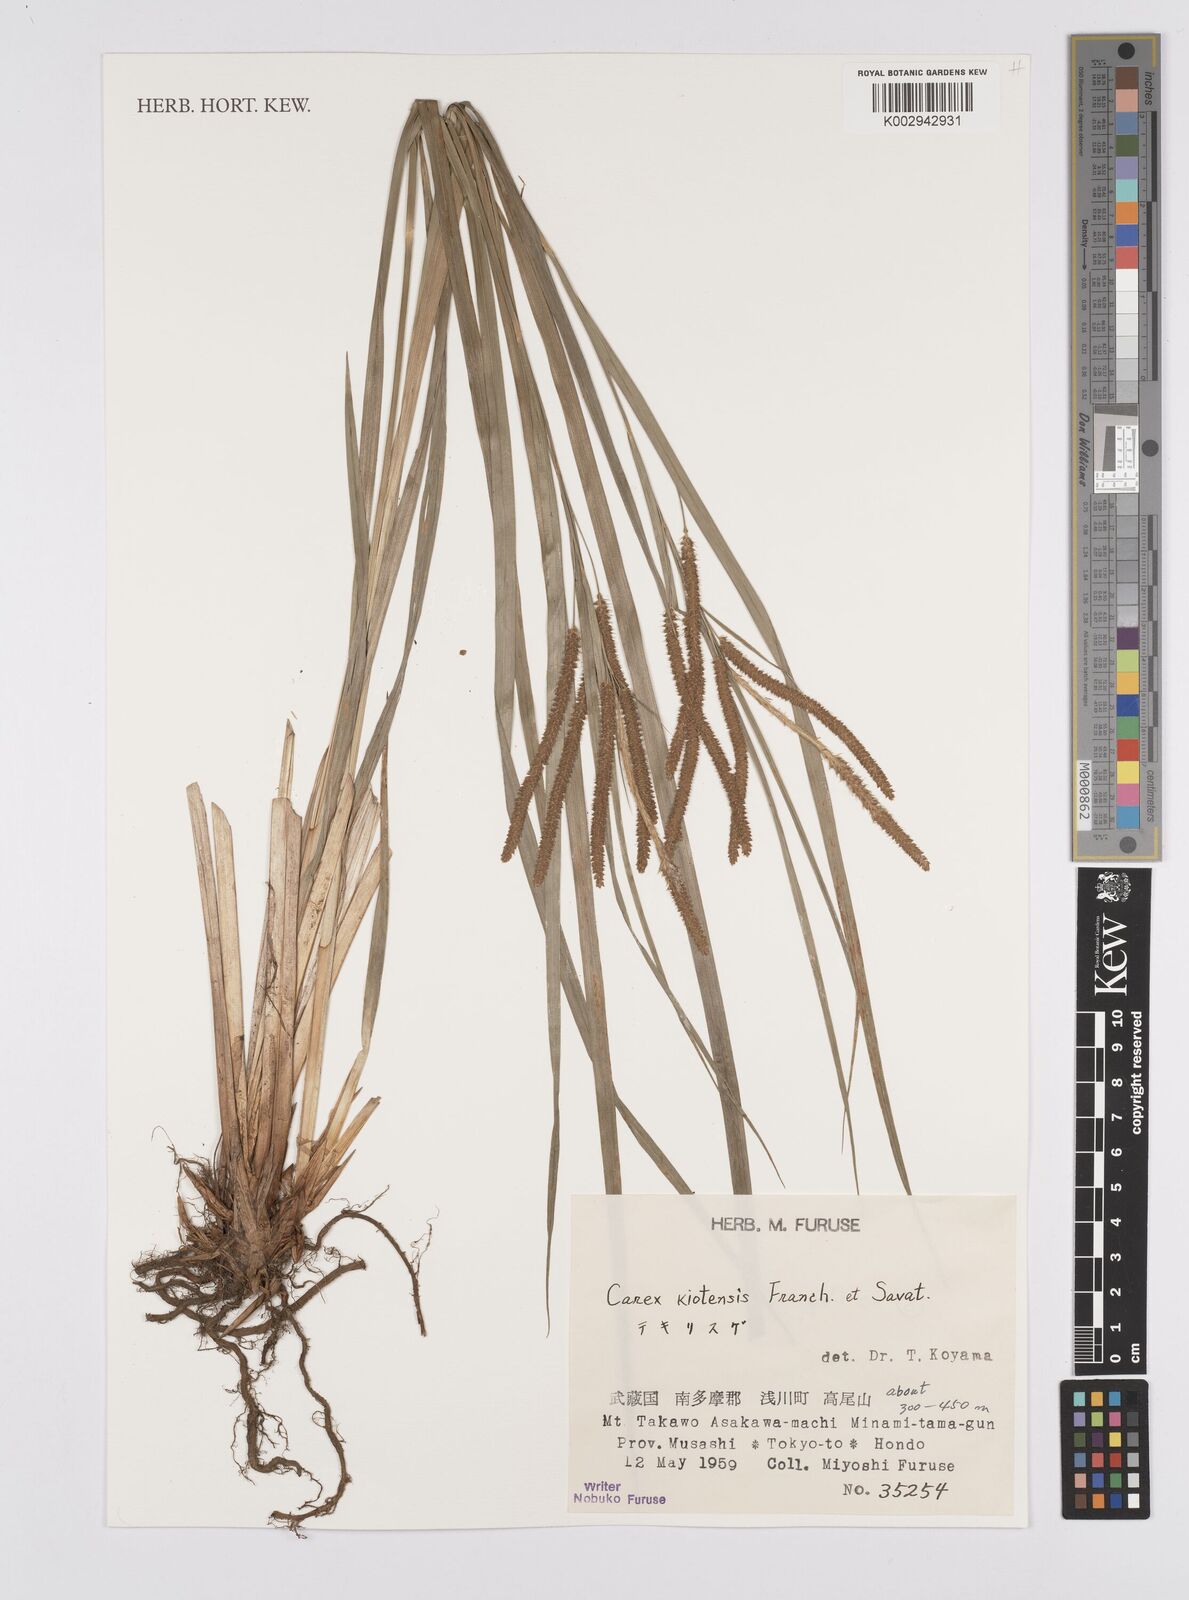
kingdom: Plantae
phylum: Tracheophyta
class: Liliopsida
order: Poales
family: Cyperaceae
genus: Carex
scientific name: Carex kiotensis
